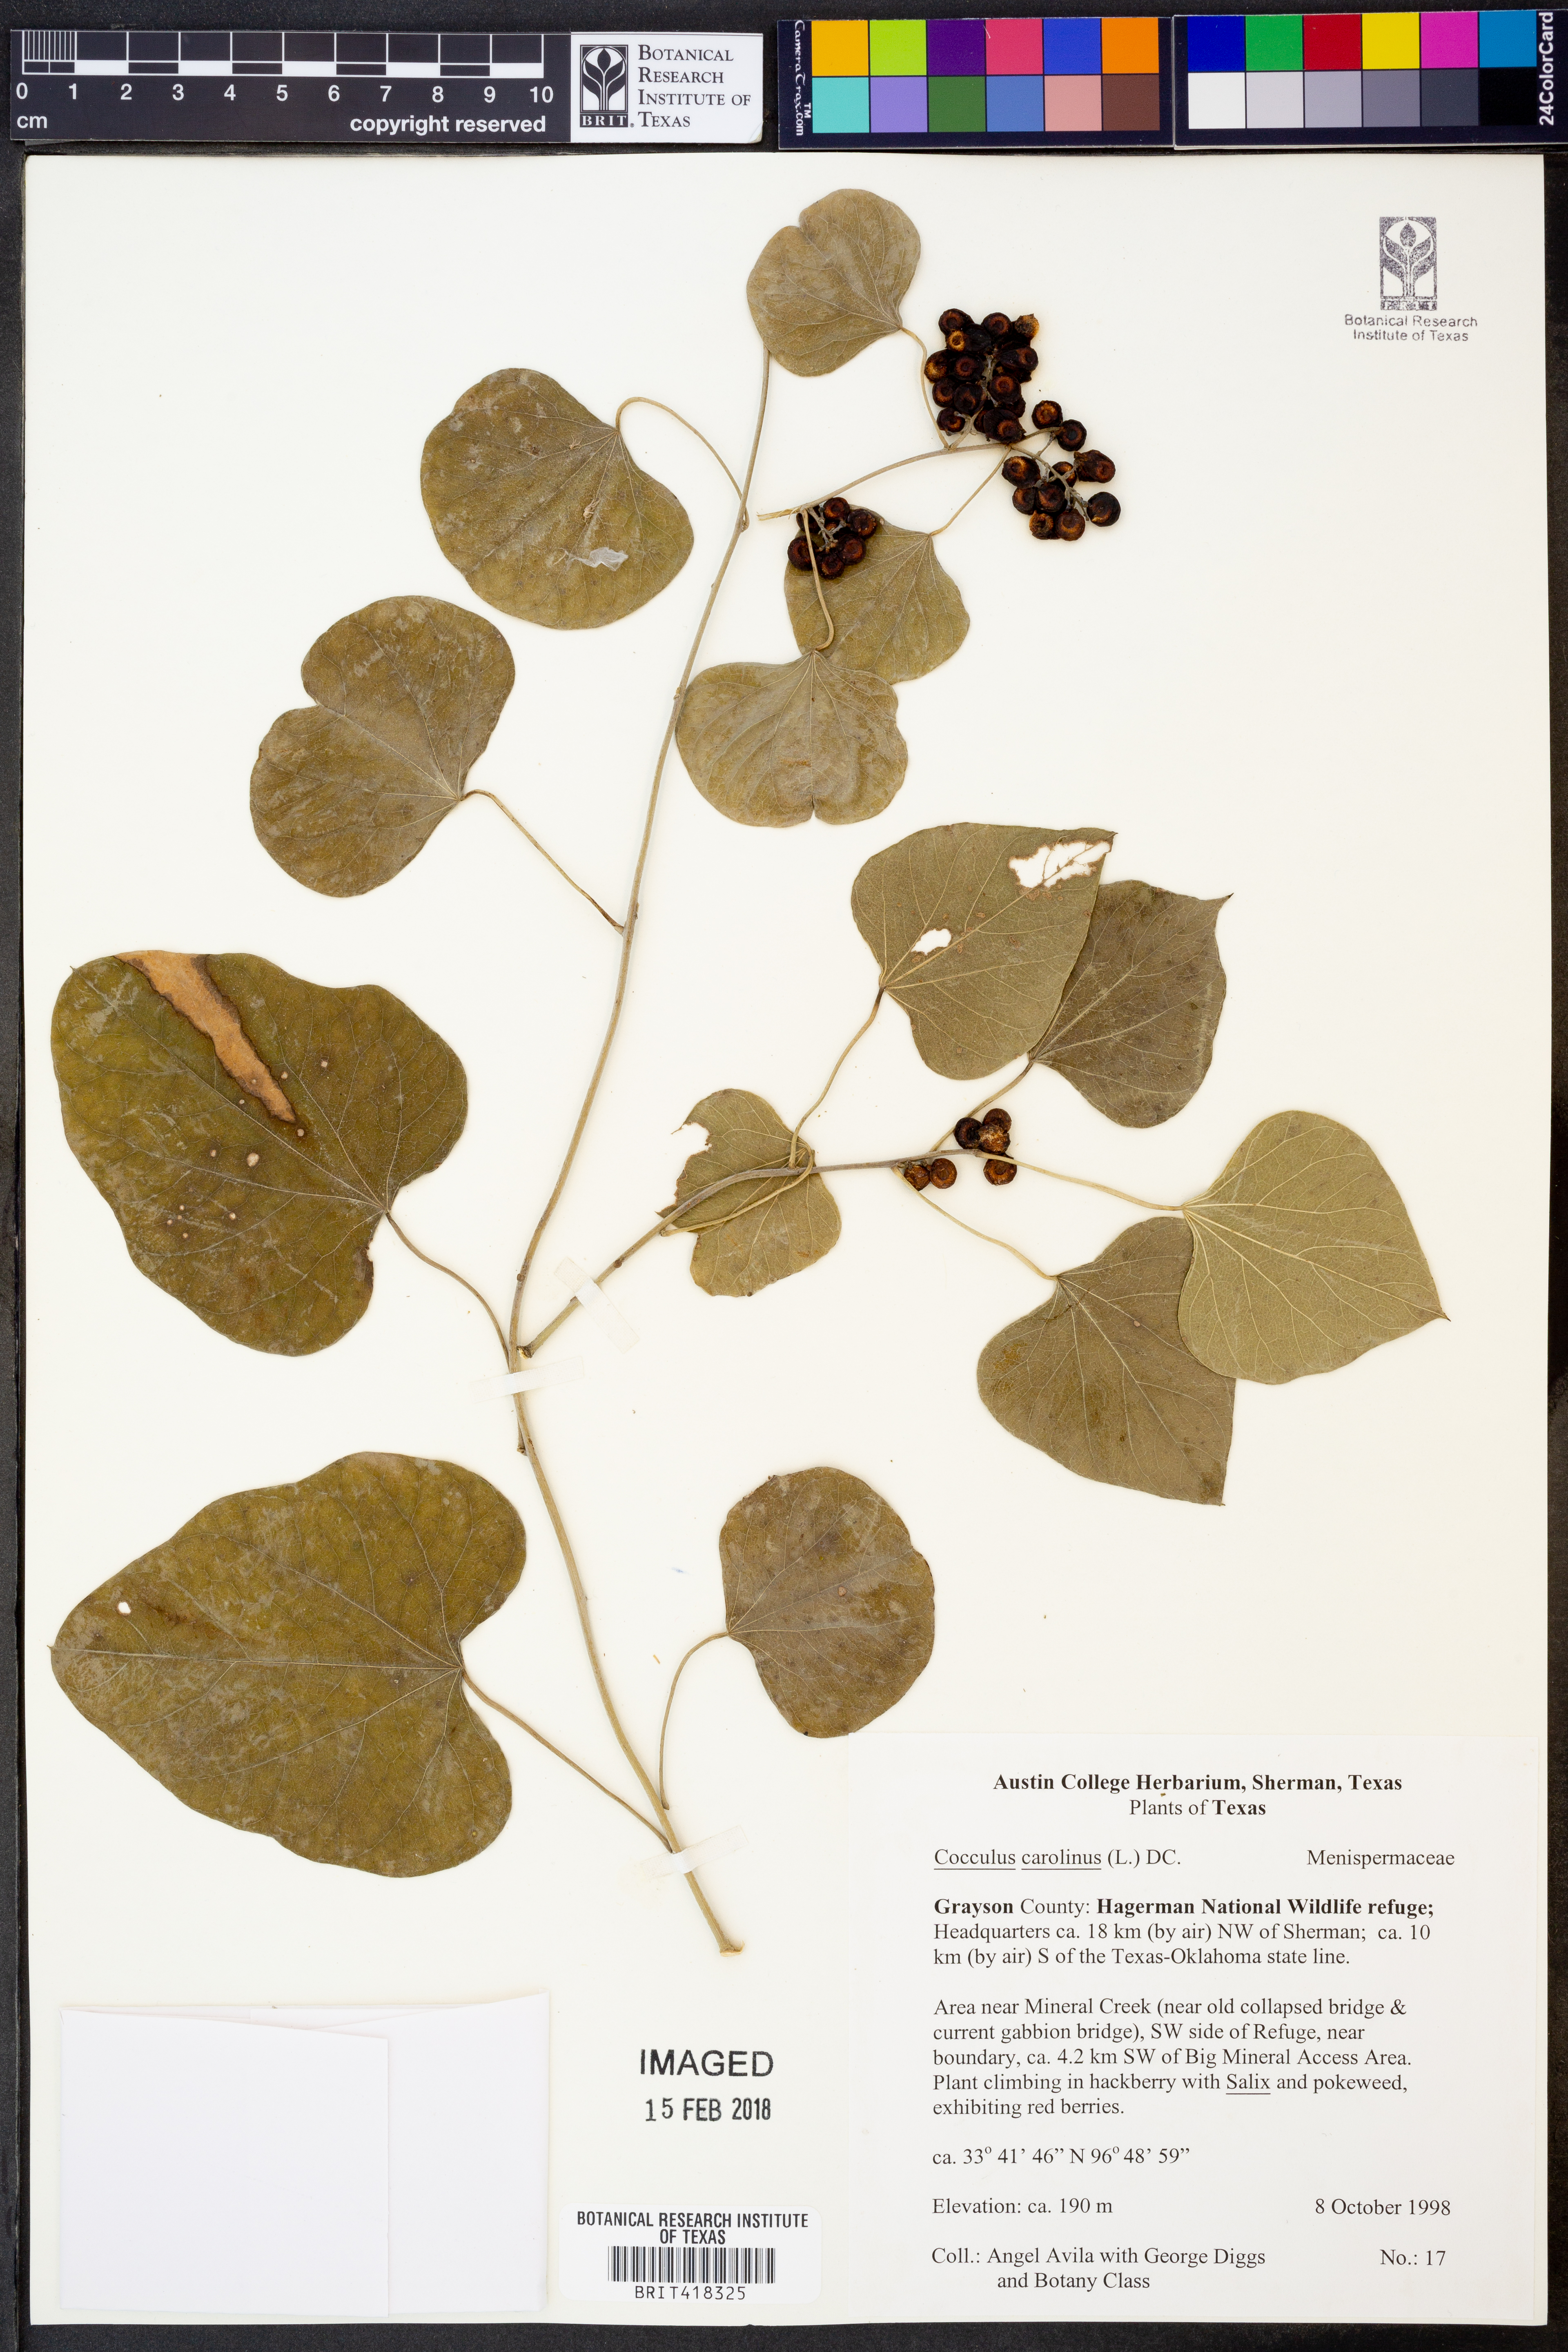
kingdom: Plantae
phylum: Tracheophyta
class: Magnoliopsida
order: Ranunculales
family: Menispermaceae
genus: Cocculus
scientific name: Cocculus carolinus
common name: Carolina moonseed
